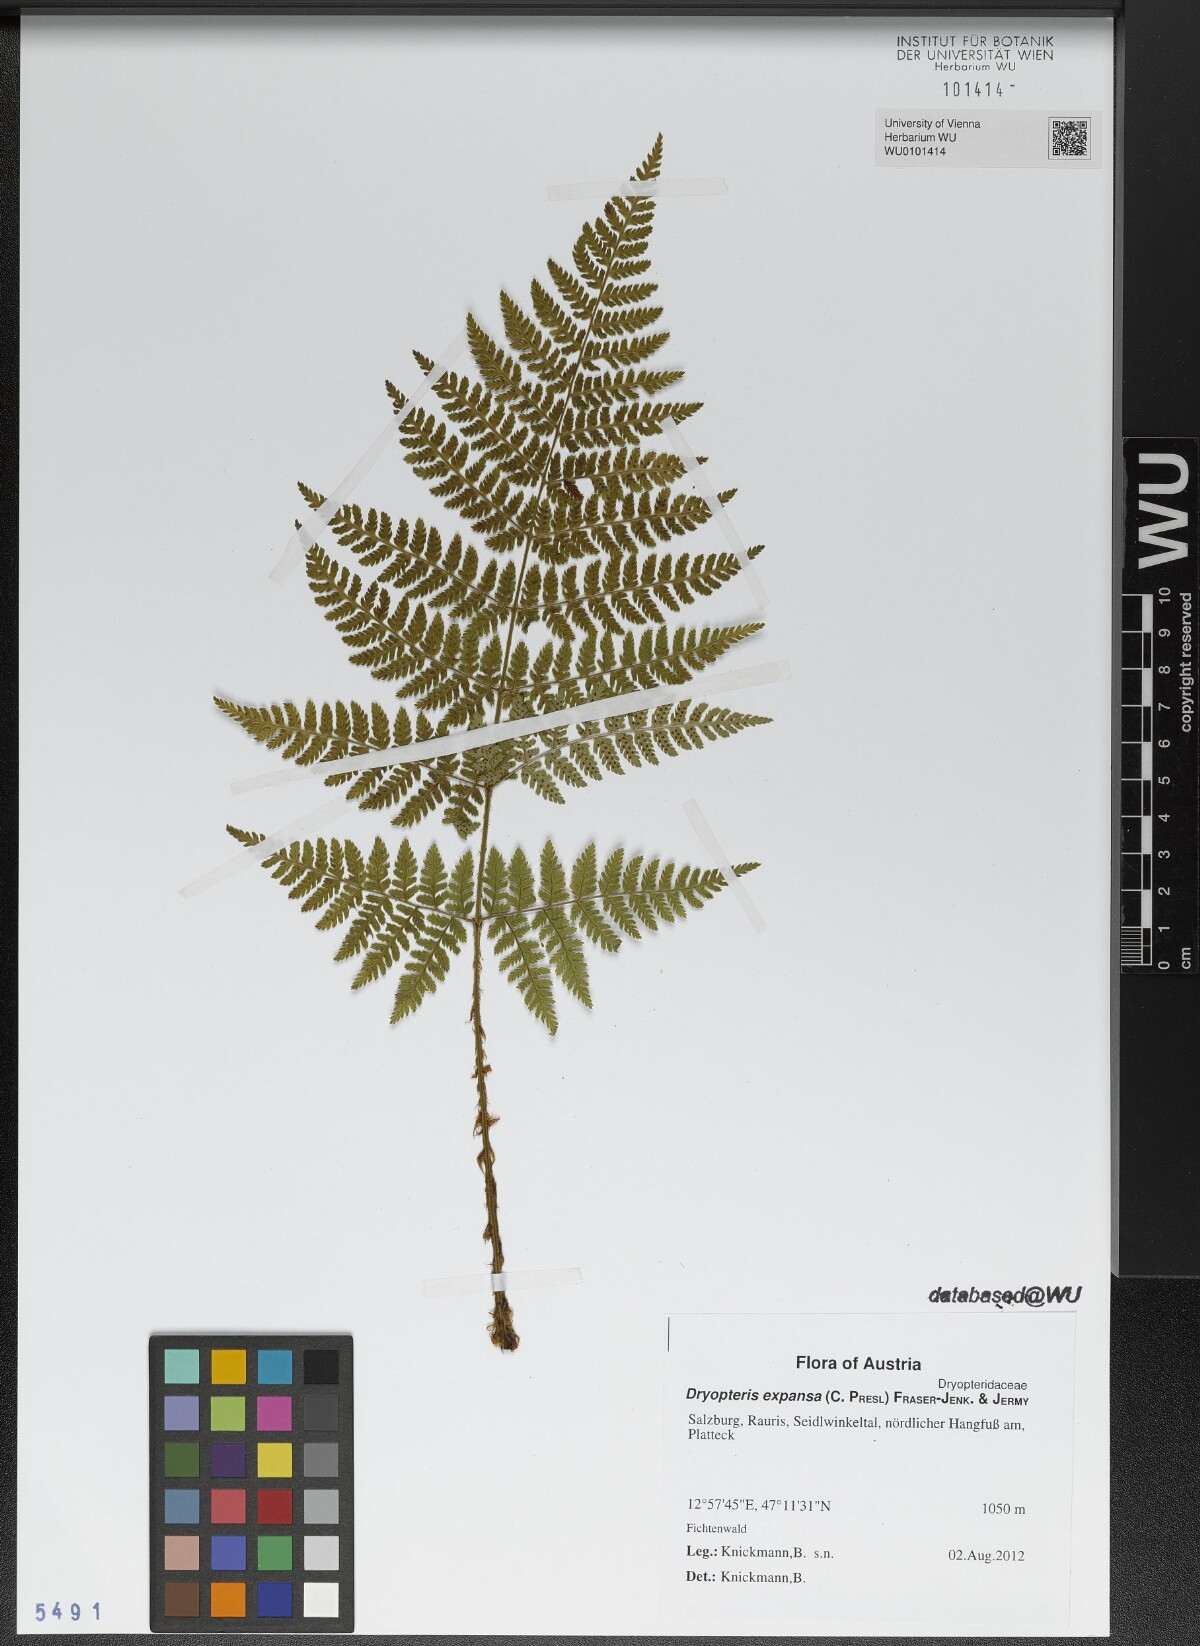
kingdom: Plantae
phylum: Tracheophyta
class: Polypodiopsida
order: Polypodiales
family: Dryopteridaceae
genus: Dryopteris
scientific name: Dryopteris expansa
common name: Northern buckler fern
